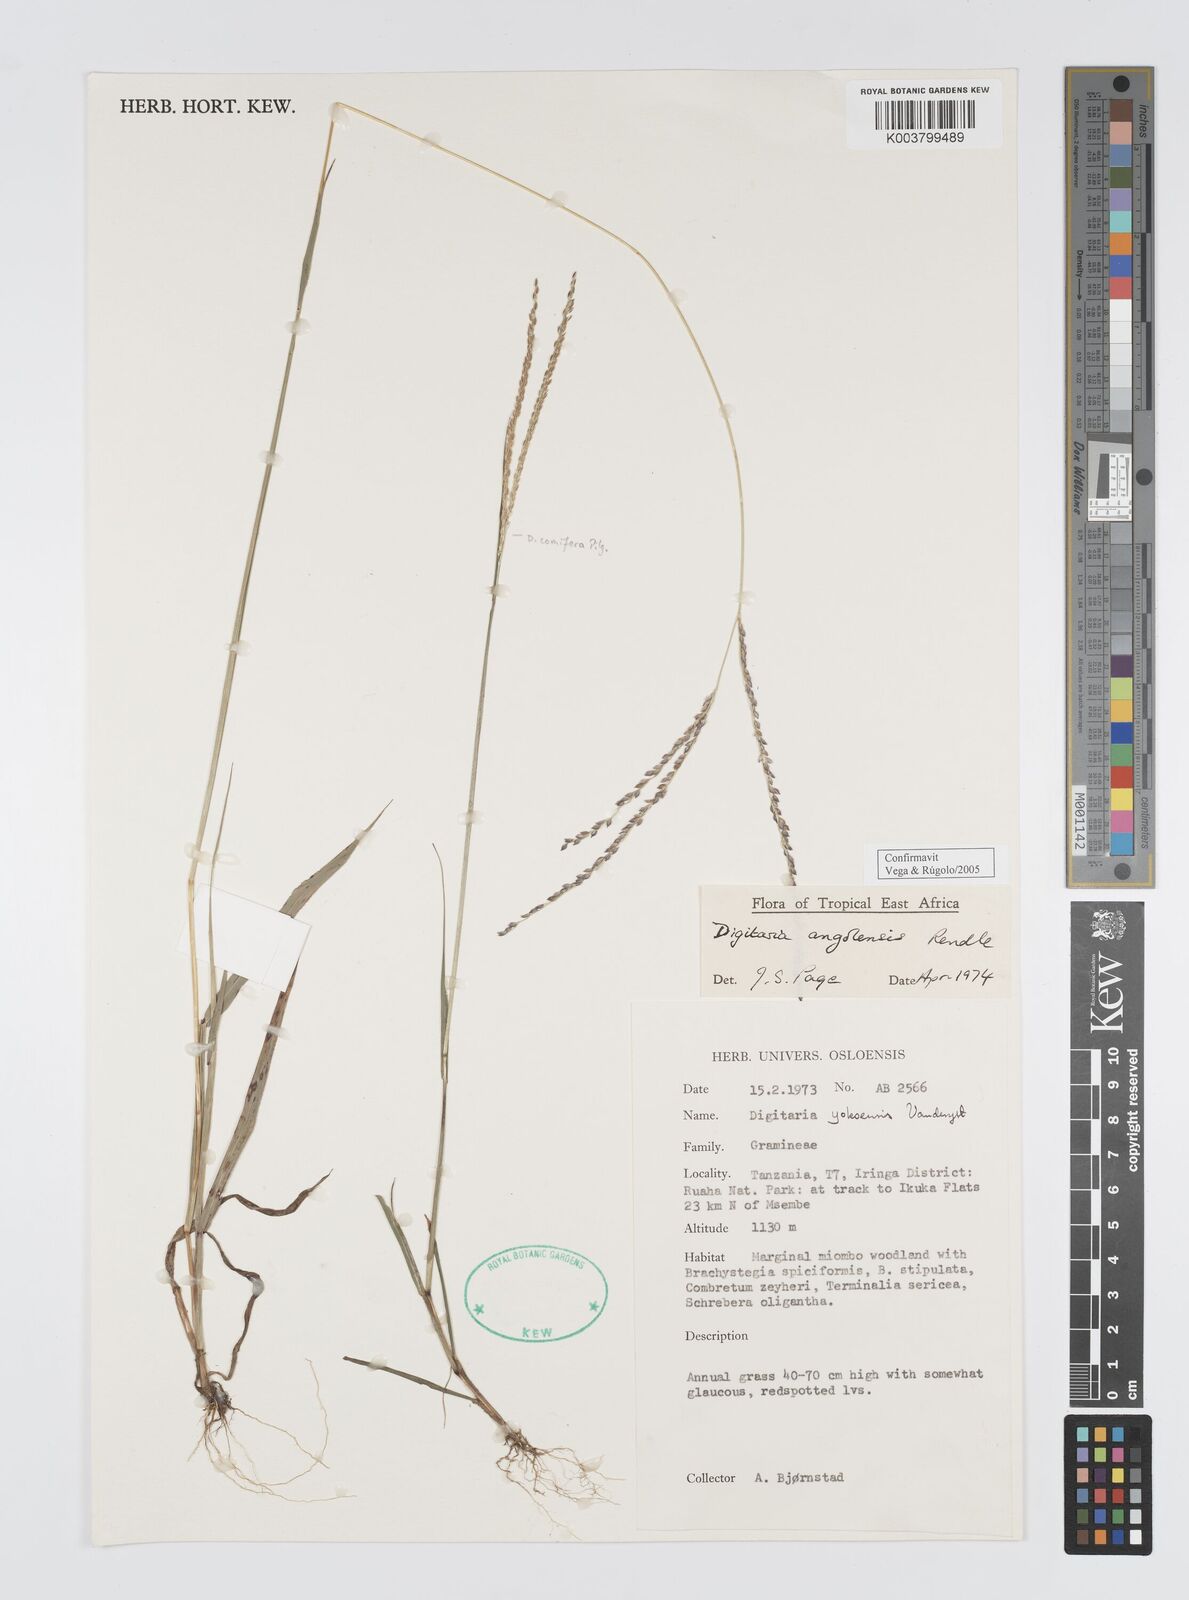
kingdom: Plantae
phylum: Tracheophyta
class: Liliopsida
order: Poales
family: Poaceae
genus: Digitaria
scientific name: Digitaria angolensis
